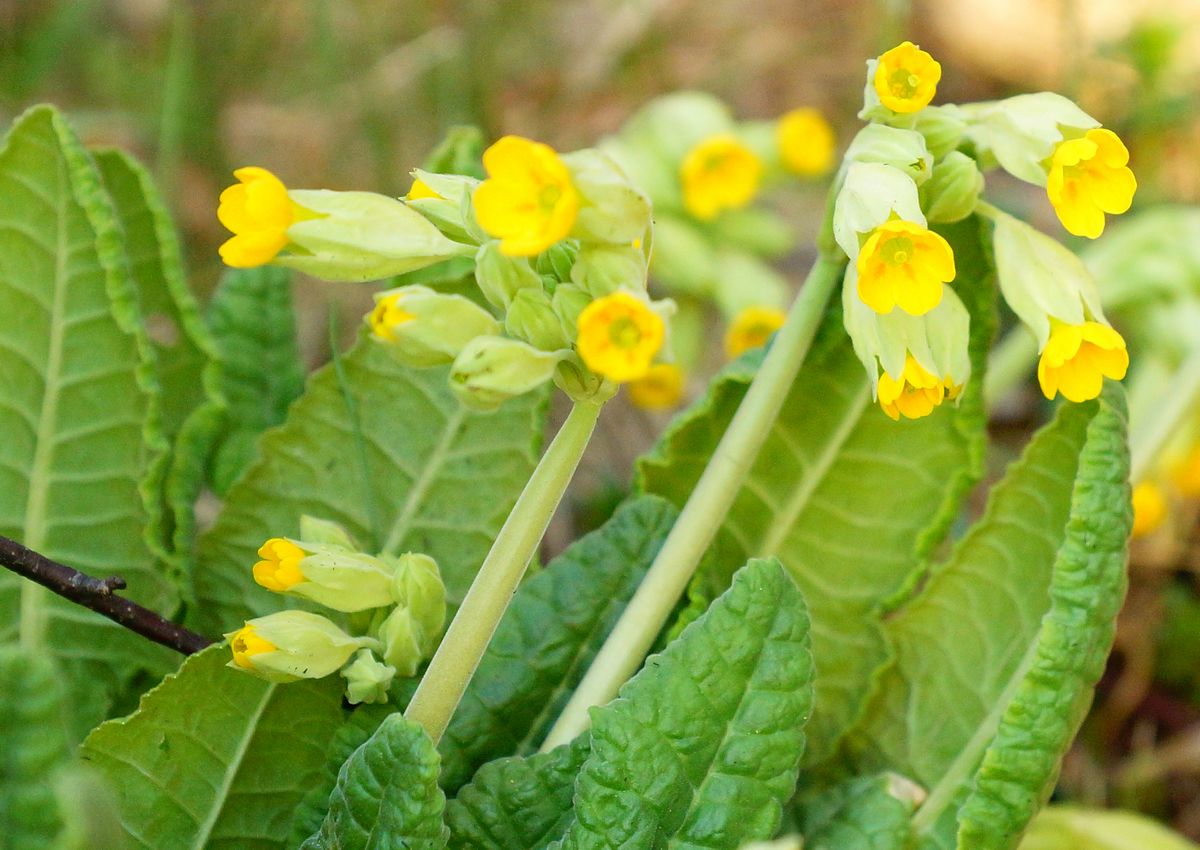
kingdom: Plantae
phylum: Tracheophyta
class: Magnoliopsida
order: Ericales
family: Primulaceae
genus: Primula
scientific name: Primula veris
